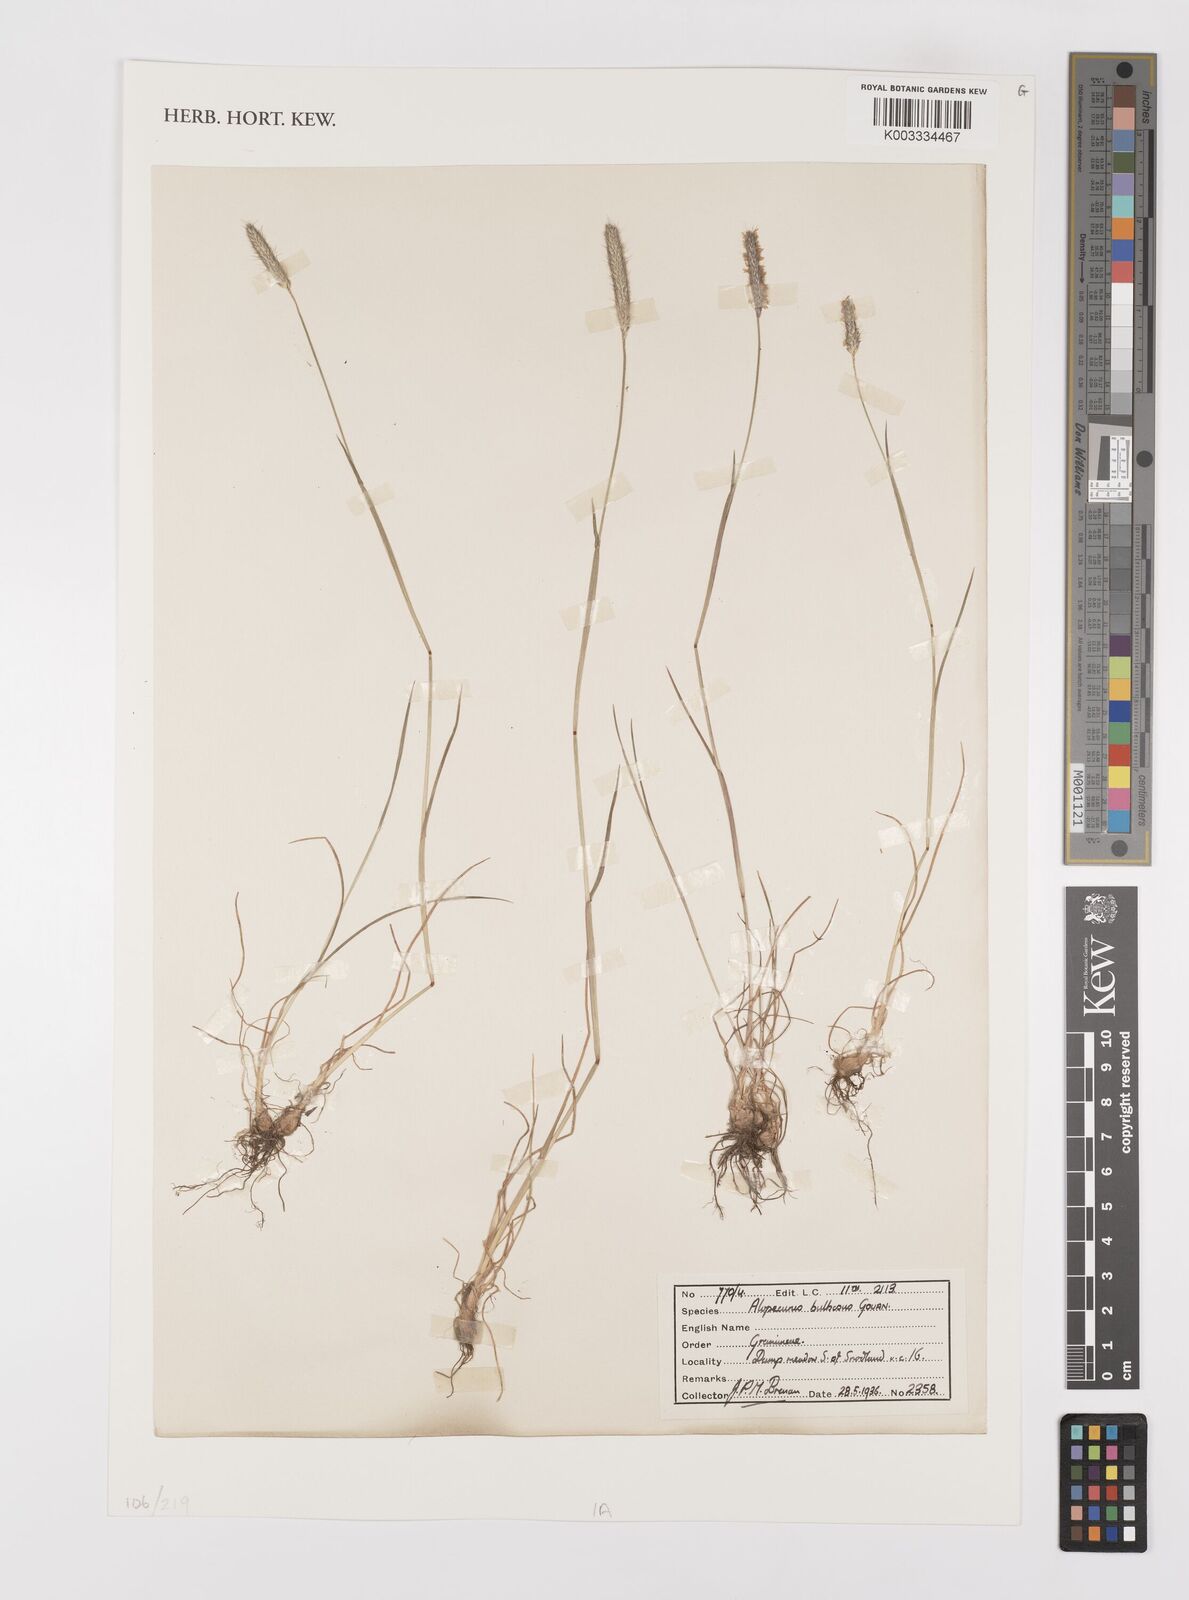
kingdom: Plantae
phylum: Tracheophyta
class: Liliopsida
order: Poales
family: Poaceae
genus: Alopecurus
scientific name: Alopecurus bulbosus
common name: Bulbous foxtail
